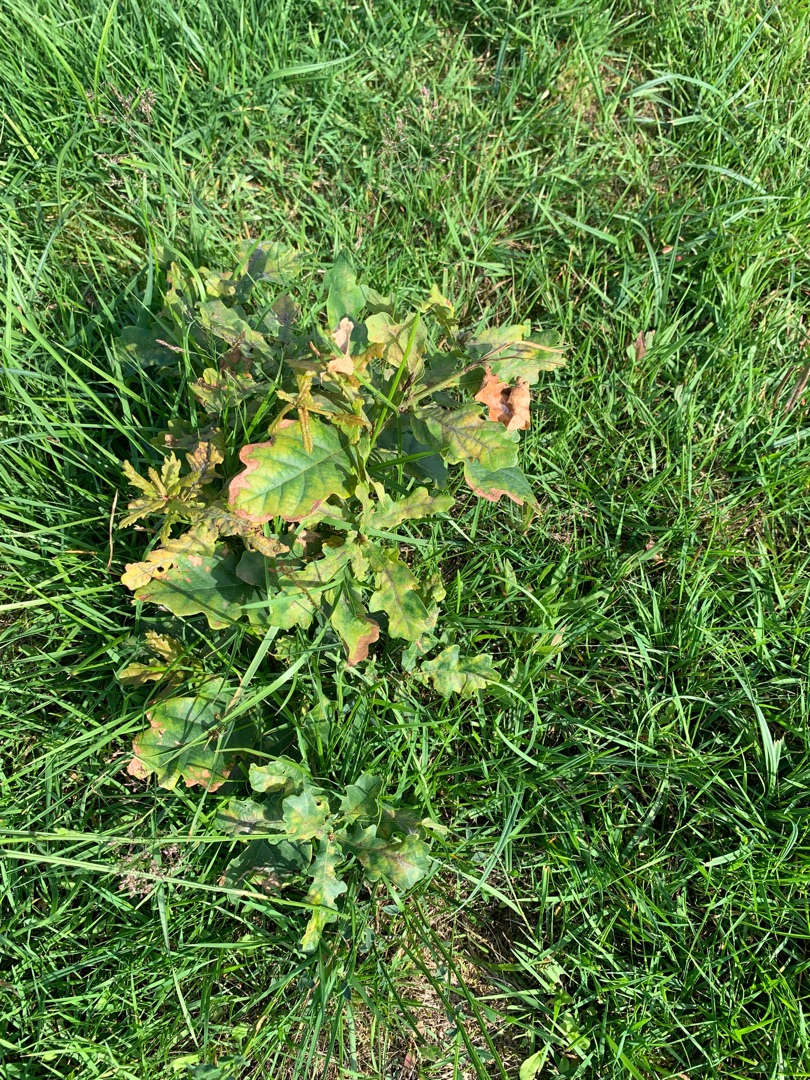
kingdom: Plantae
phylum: Tracheophyta
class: Magnoliopsida
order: Fagales
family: Fagaceae
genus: Quercus
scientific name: Quercus robur
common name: Stilk-eg/almindelig eg
